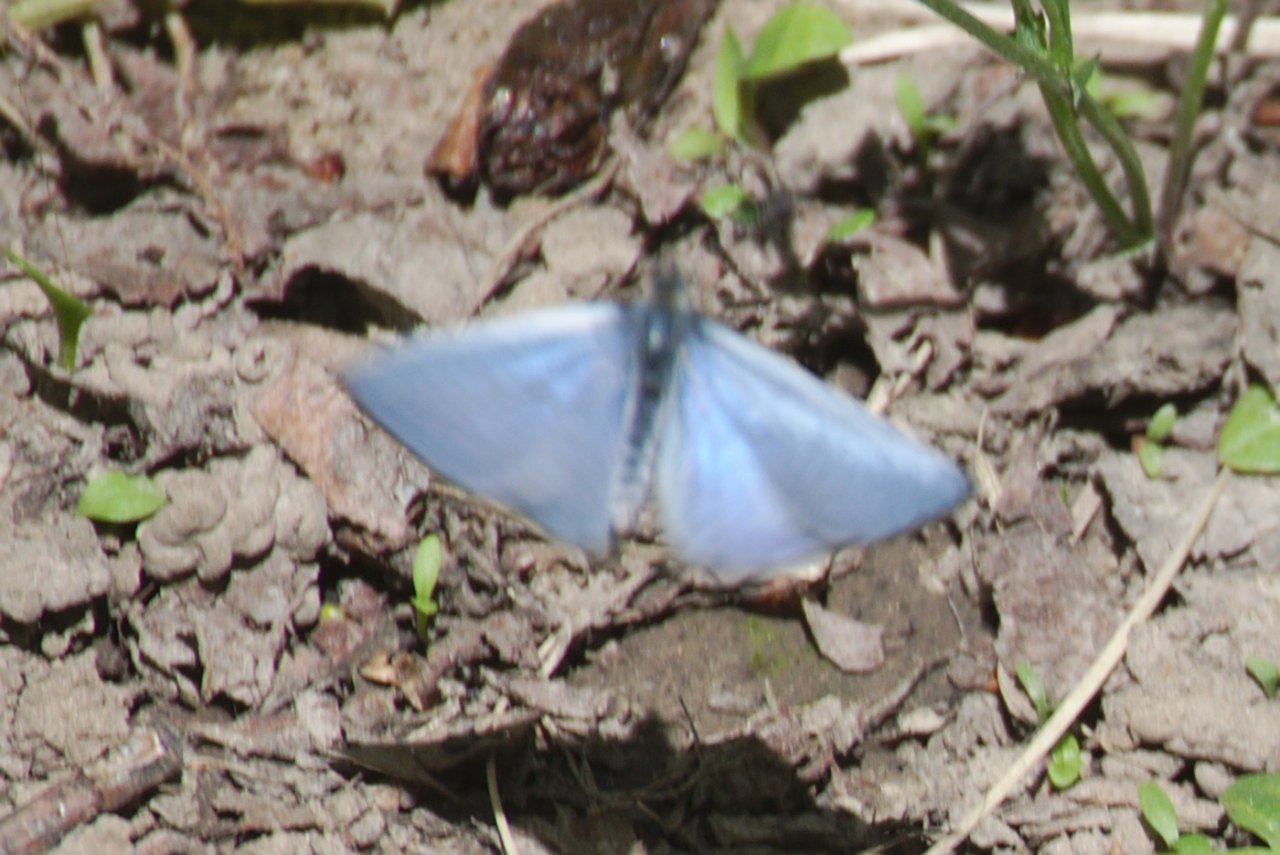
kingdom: Animalia
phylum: Arthropoda
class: Insecta
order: Lepidoptera
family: Lycaenidae
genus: Celastrina
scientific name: Celastrina lucia
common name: Northern Spring Azure
